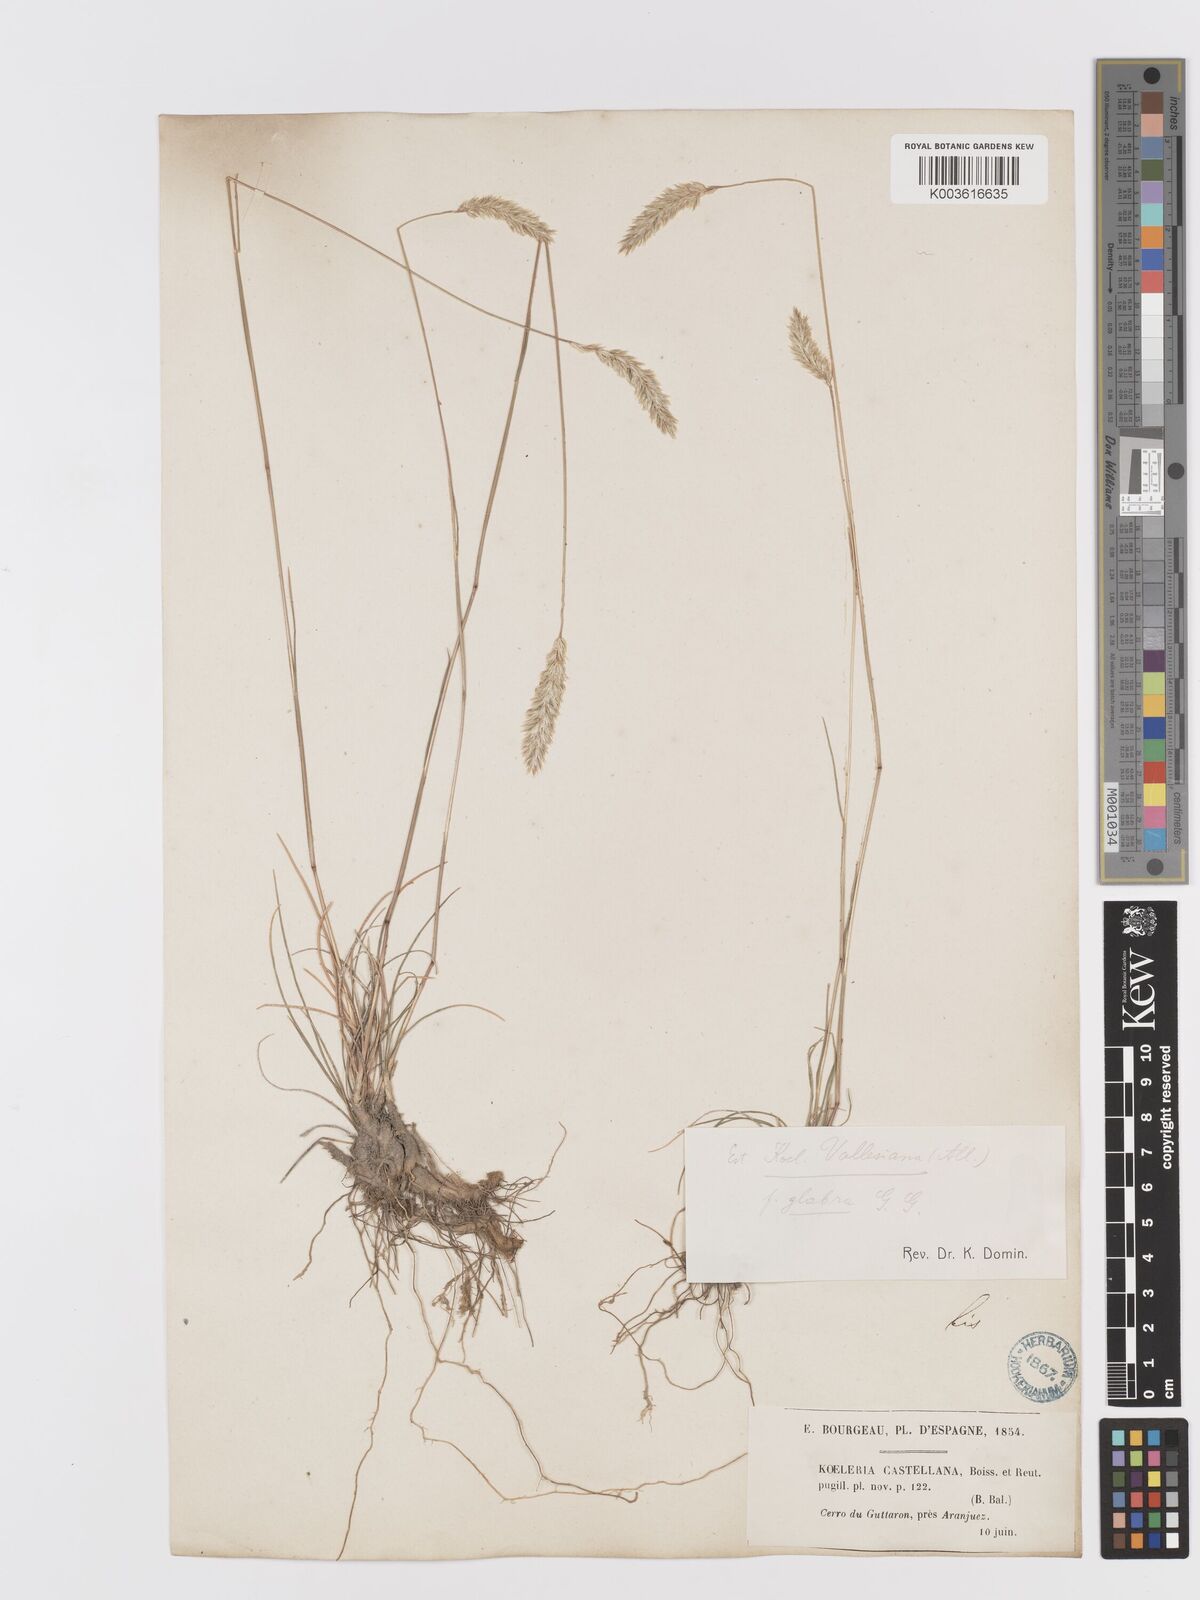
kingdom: Plantae
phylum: Tracheophyta
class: Liliopsida
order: Poales
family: Poaceae
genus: Koeleria
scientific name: Koeleria vallesiana
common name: Somerset hair-grass
